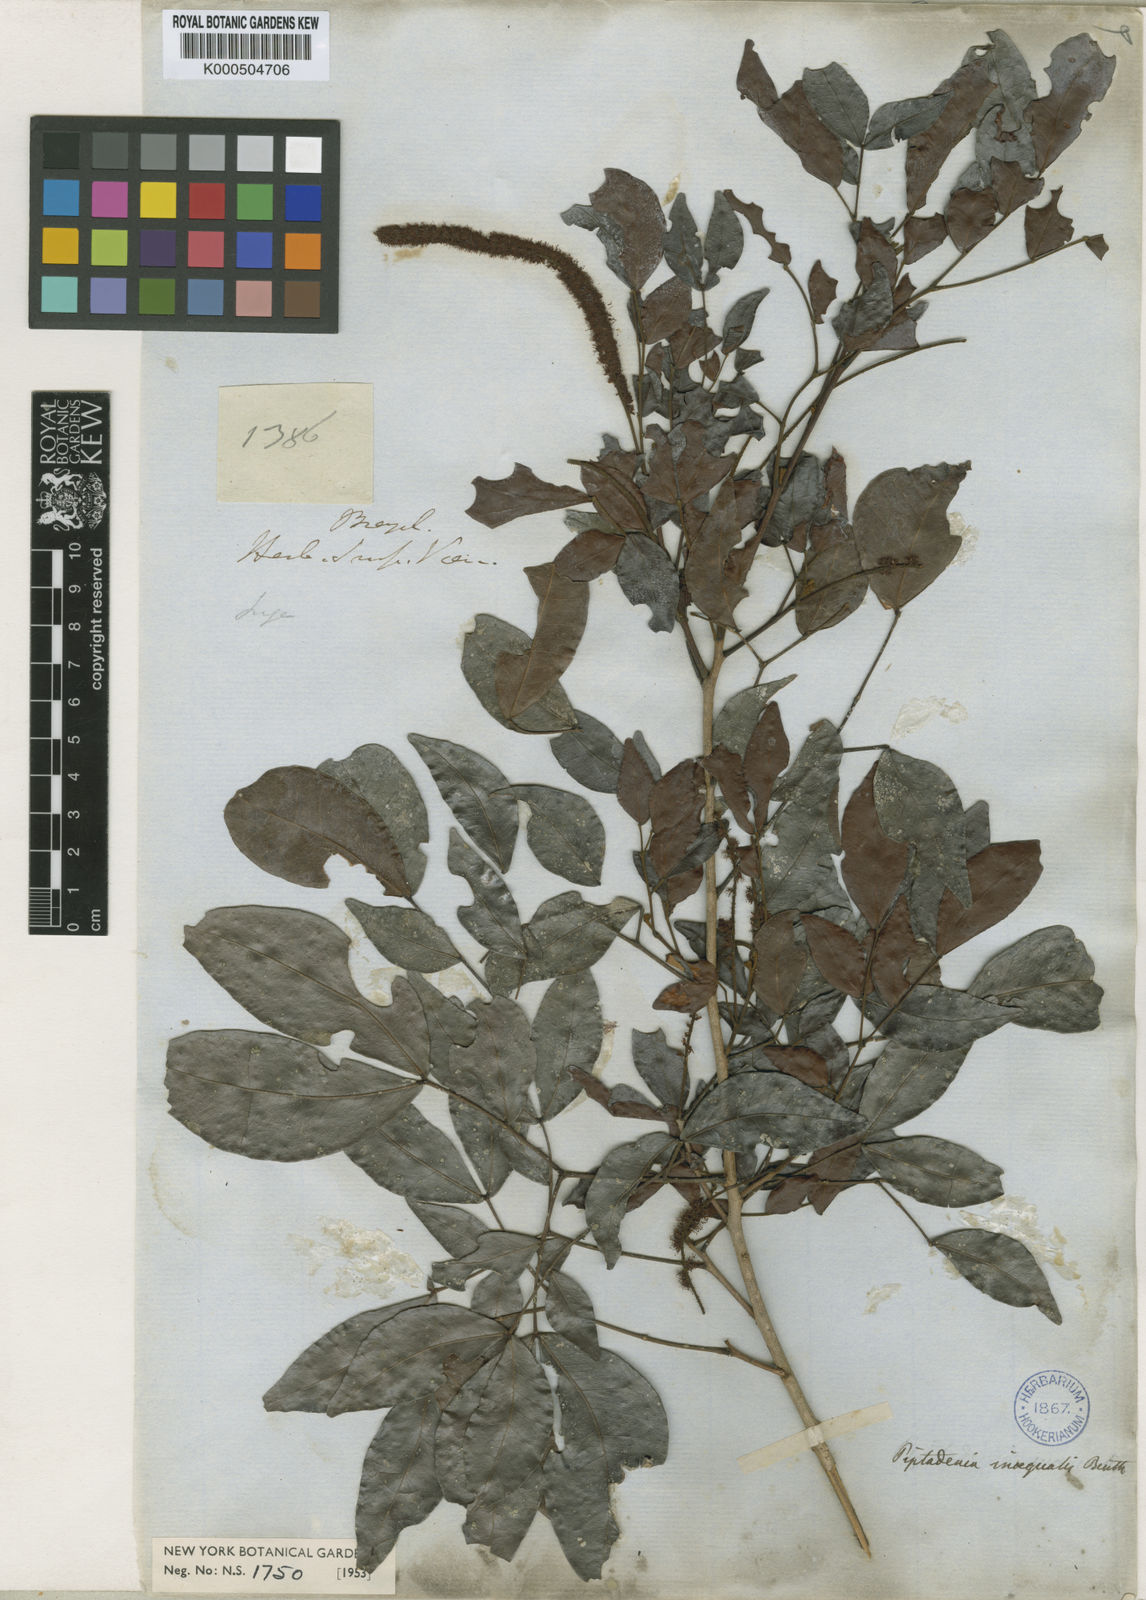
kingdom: Plantae
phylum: Tracheophyta
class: Magnoliopsida
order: Fabales
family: Fabaceae
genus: Pseudopiptadenia
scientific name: Pseudopiptadenia inaequalis
